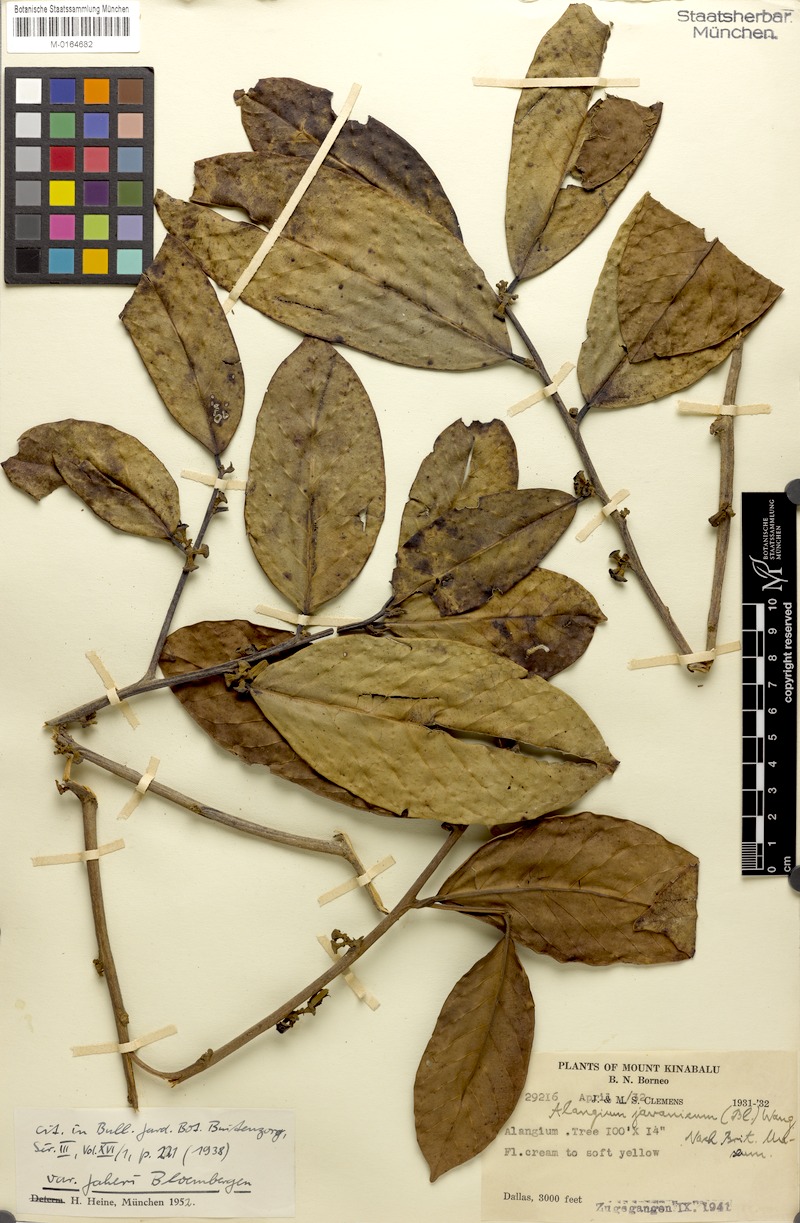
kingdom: Plantae
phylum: Tracheophyta
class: Magnoliopsida
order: Cornales
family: Cornaceae
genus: Alangium
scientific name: Alangium minahassicum
